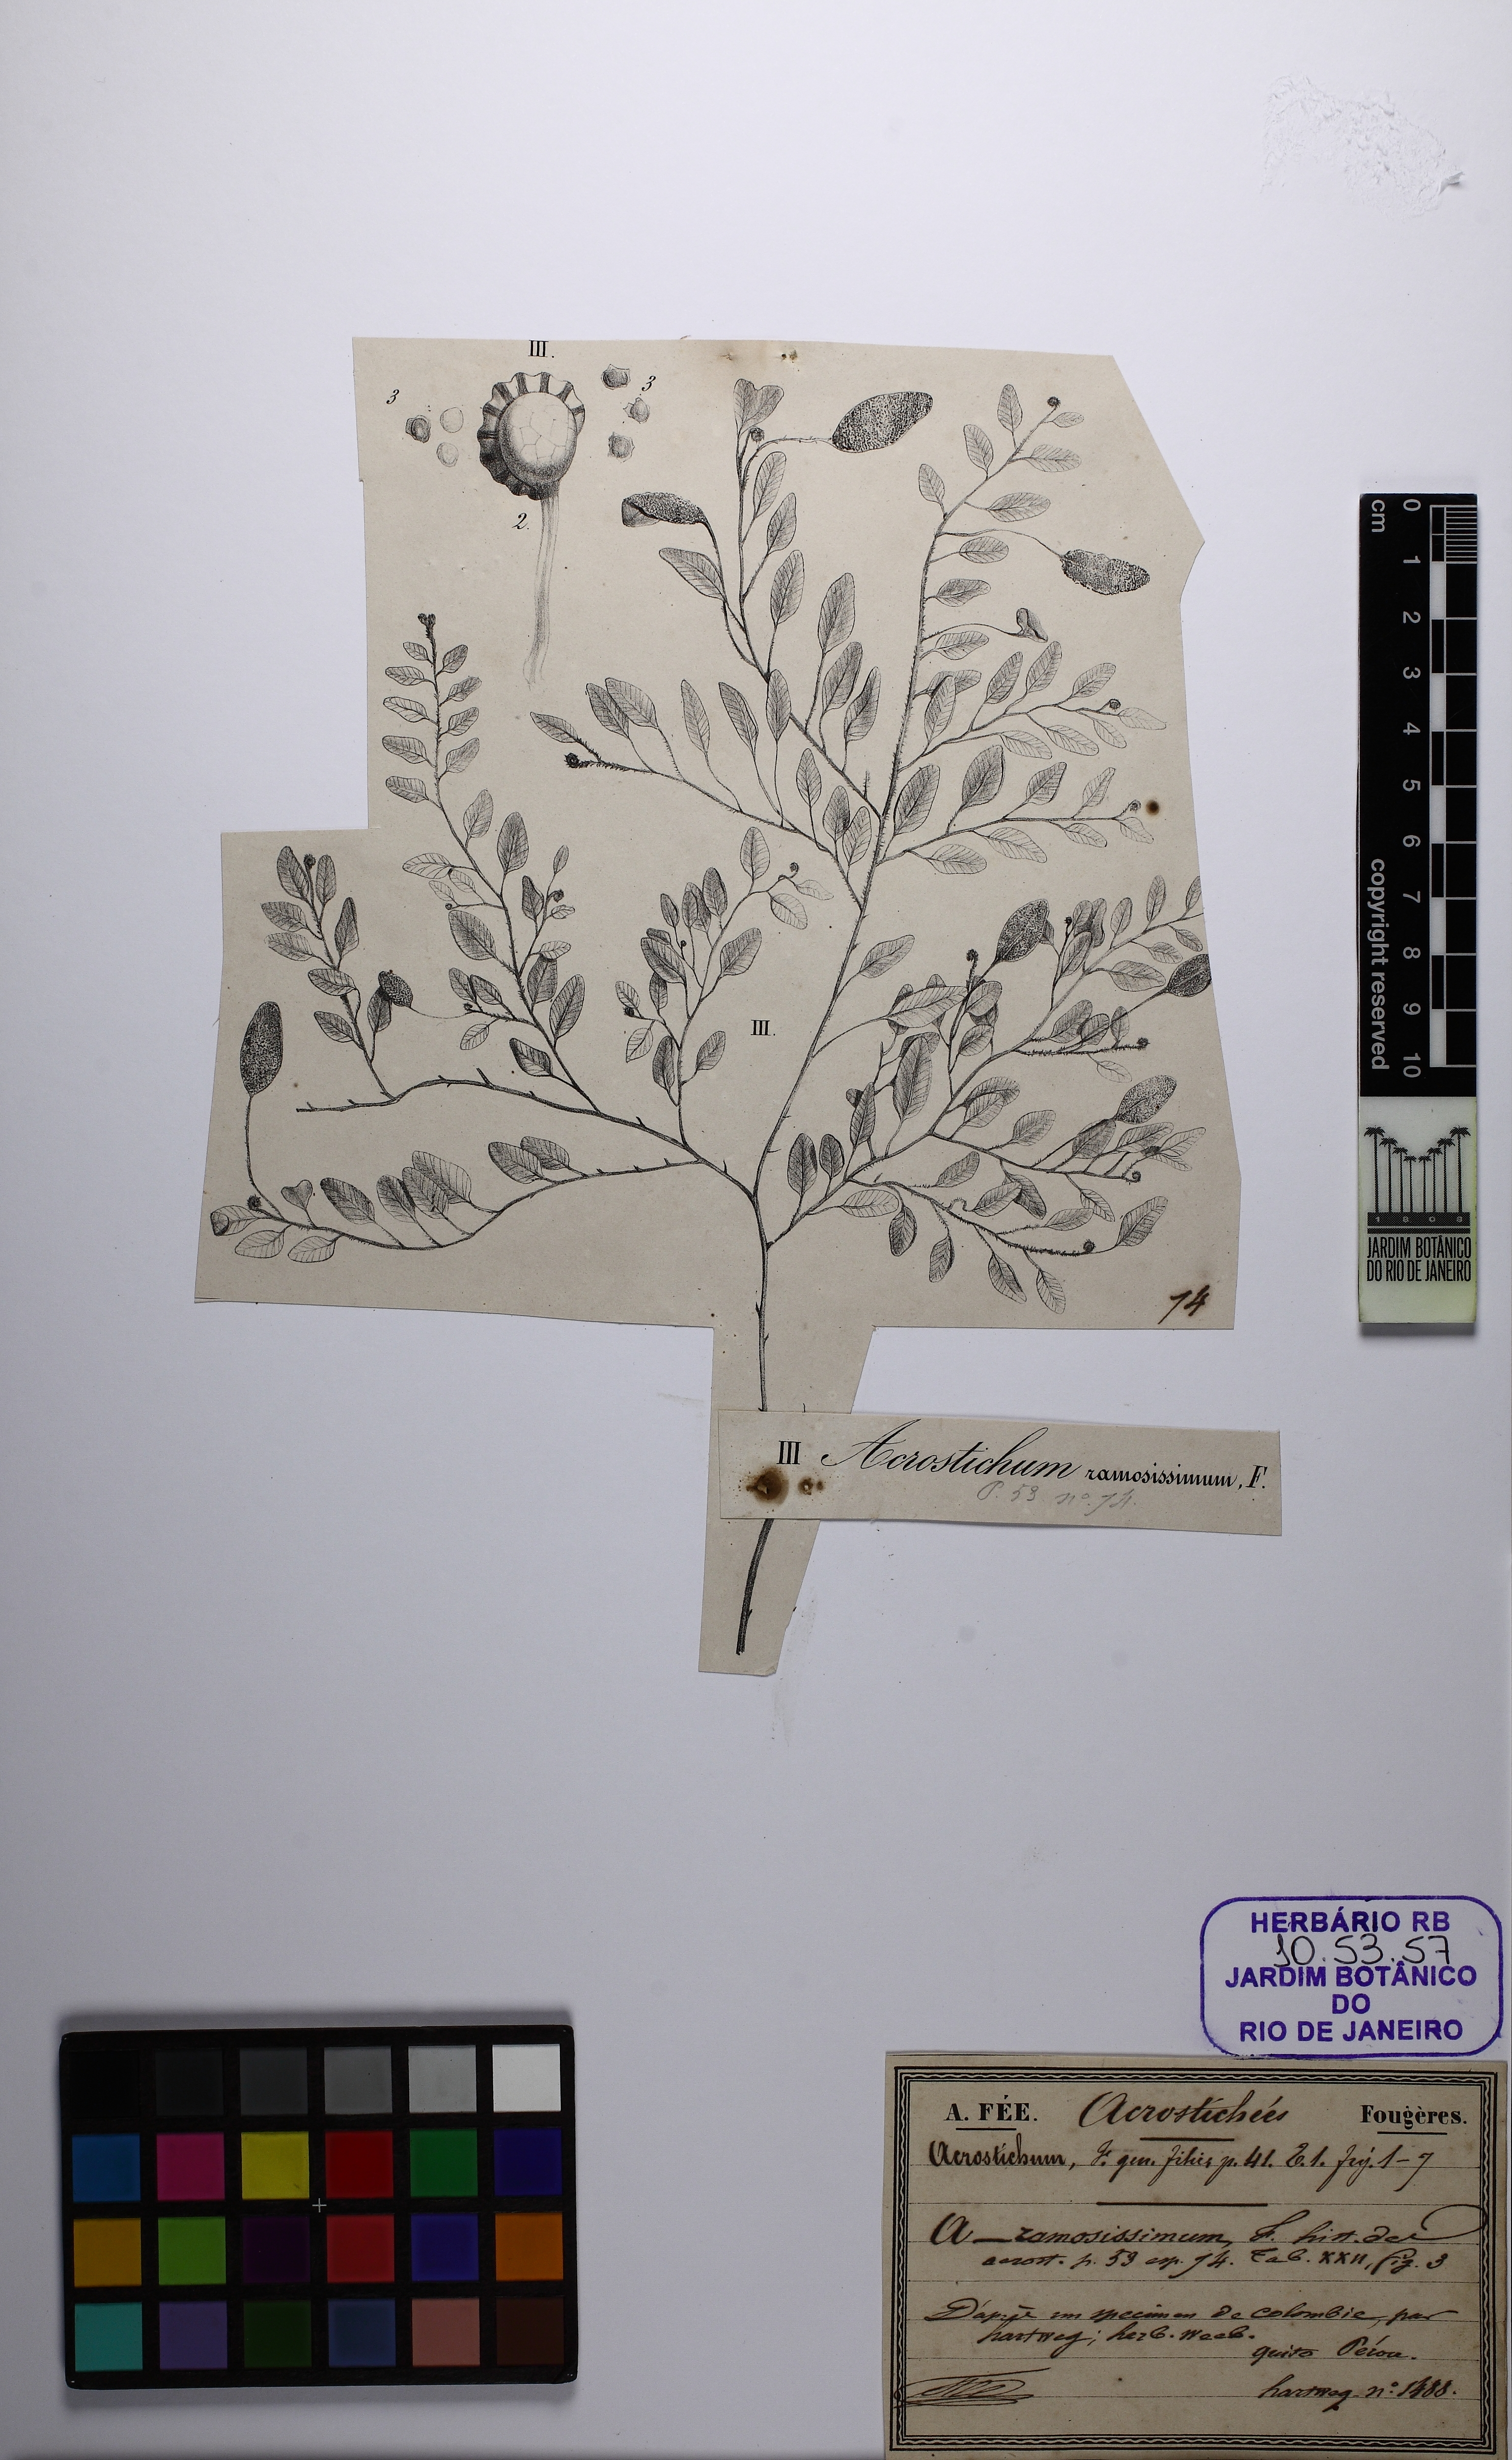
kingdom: Plantae
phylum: Tracheophyta
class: Polypodiopsida
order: Polypodiales
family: Dryopteridaceae
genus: Elaphoglossum
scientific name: Elaphoglossum ovatum
